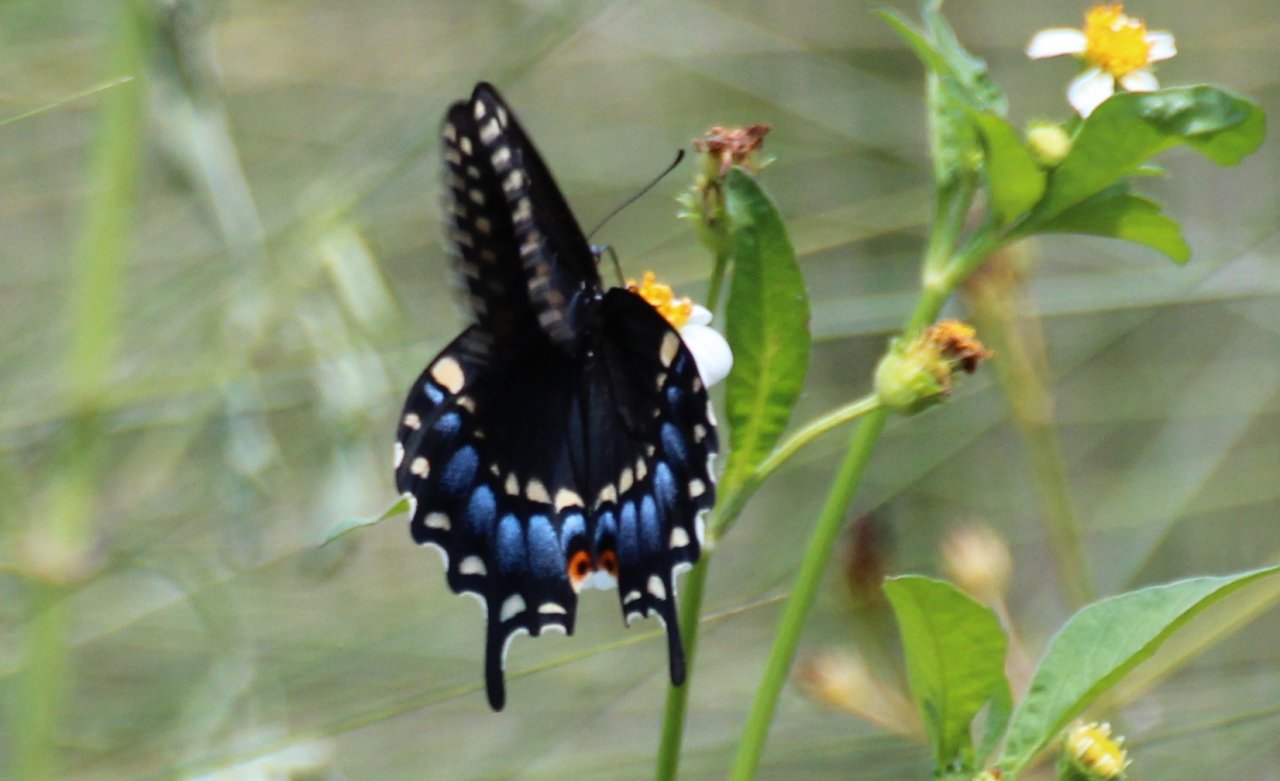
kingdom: Animalia
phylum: Arthropoda
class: Insecta
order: Lepidoptera
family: Papilionidae
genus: Papilio
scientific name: Papilio polyxenes
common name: Black Swallowtail
